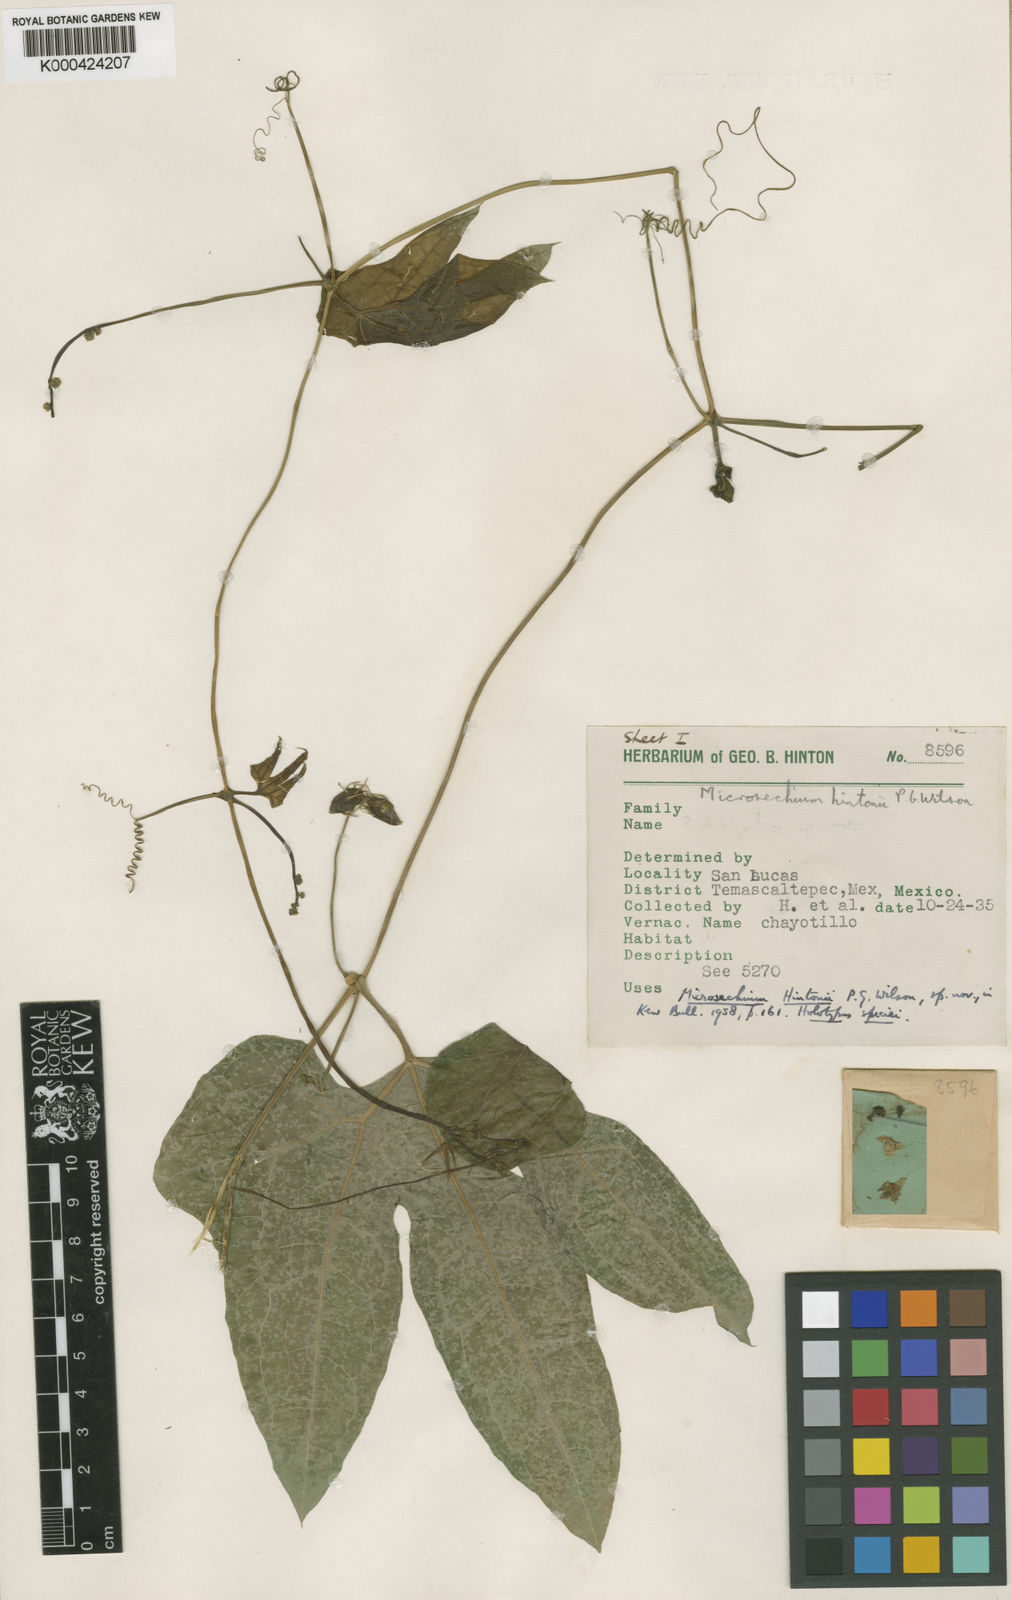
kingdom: Plantae
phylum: Tracheophyta
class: Magnoliopsida
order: Cucurbitales
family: Cucurbitaceae
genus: Sechium
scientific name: Sechium hintonii
